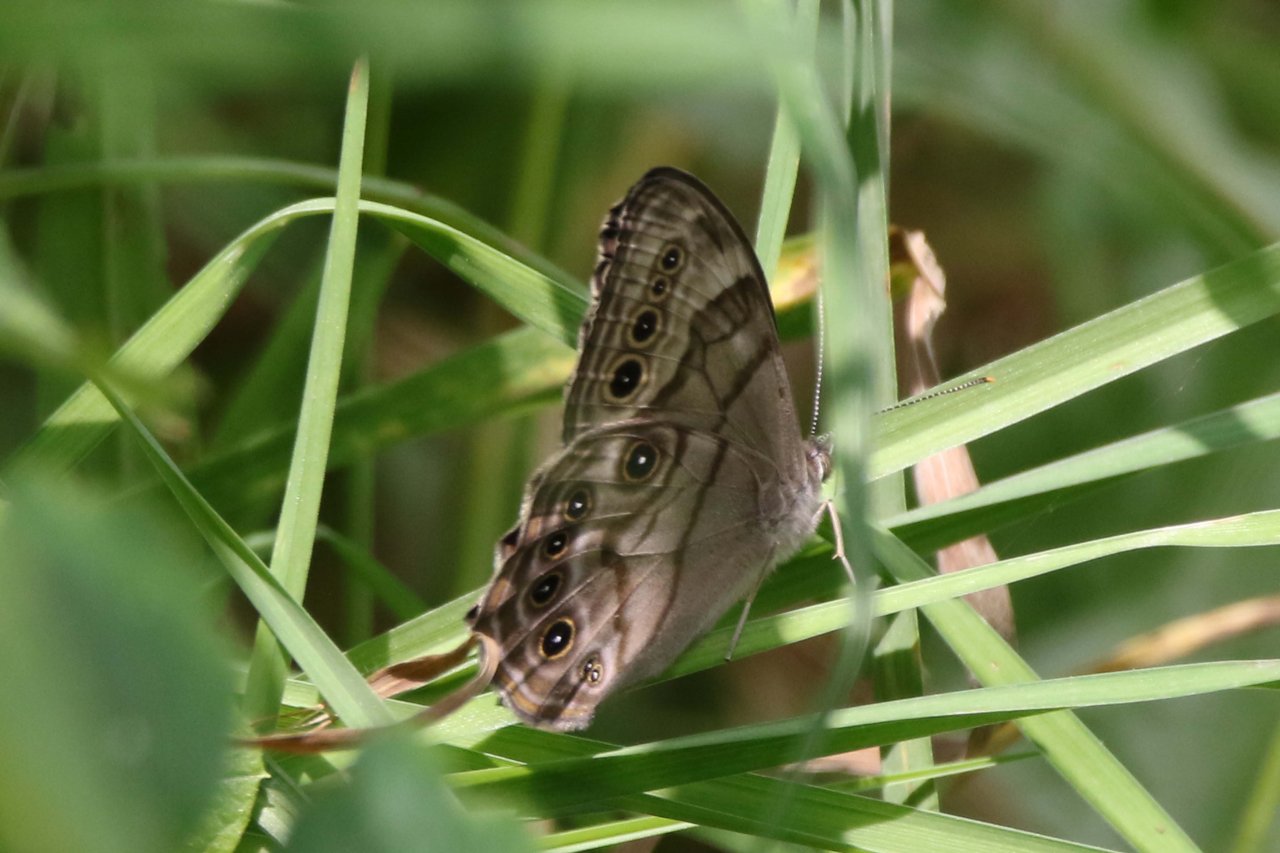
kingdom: Animalia
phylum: Arthropoda
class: Insecta
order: Lepidoptera
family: Nymphalidae
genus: Lethe
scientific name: Lethe anthedon
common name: Northern Pearly-Eye
